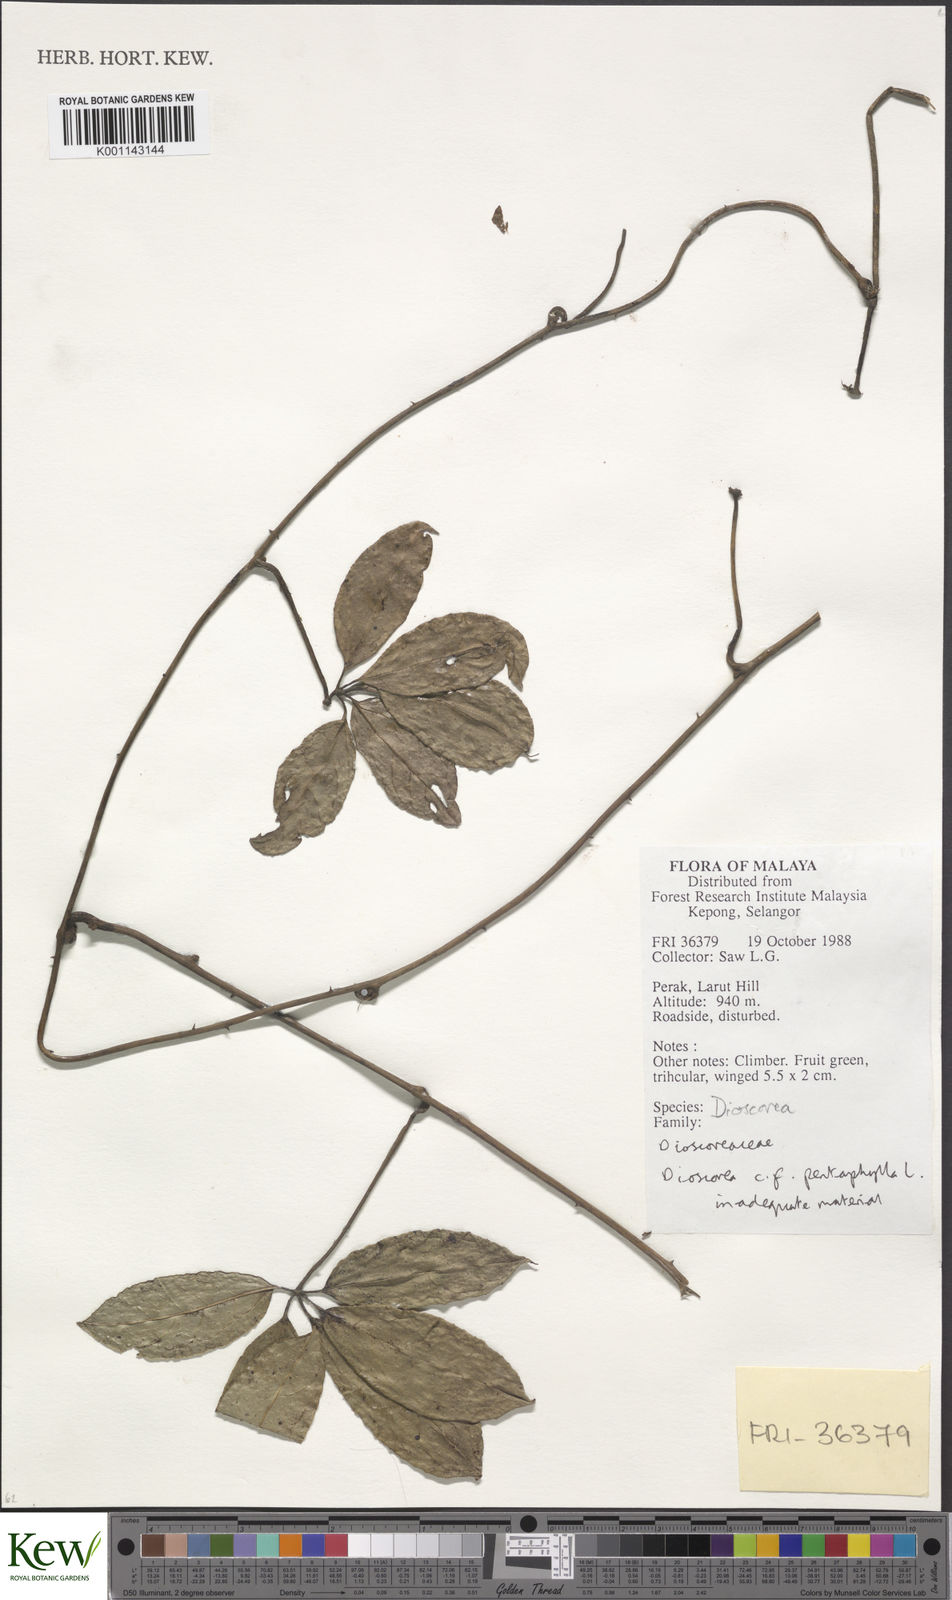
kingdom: Plantae
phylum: Tracheophyta
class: Liliopsida
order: Dioscoreales
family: Dioscoreaceae
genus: Dioscorea
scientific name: Dioscorea pentaphylla
